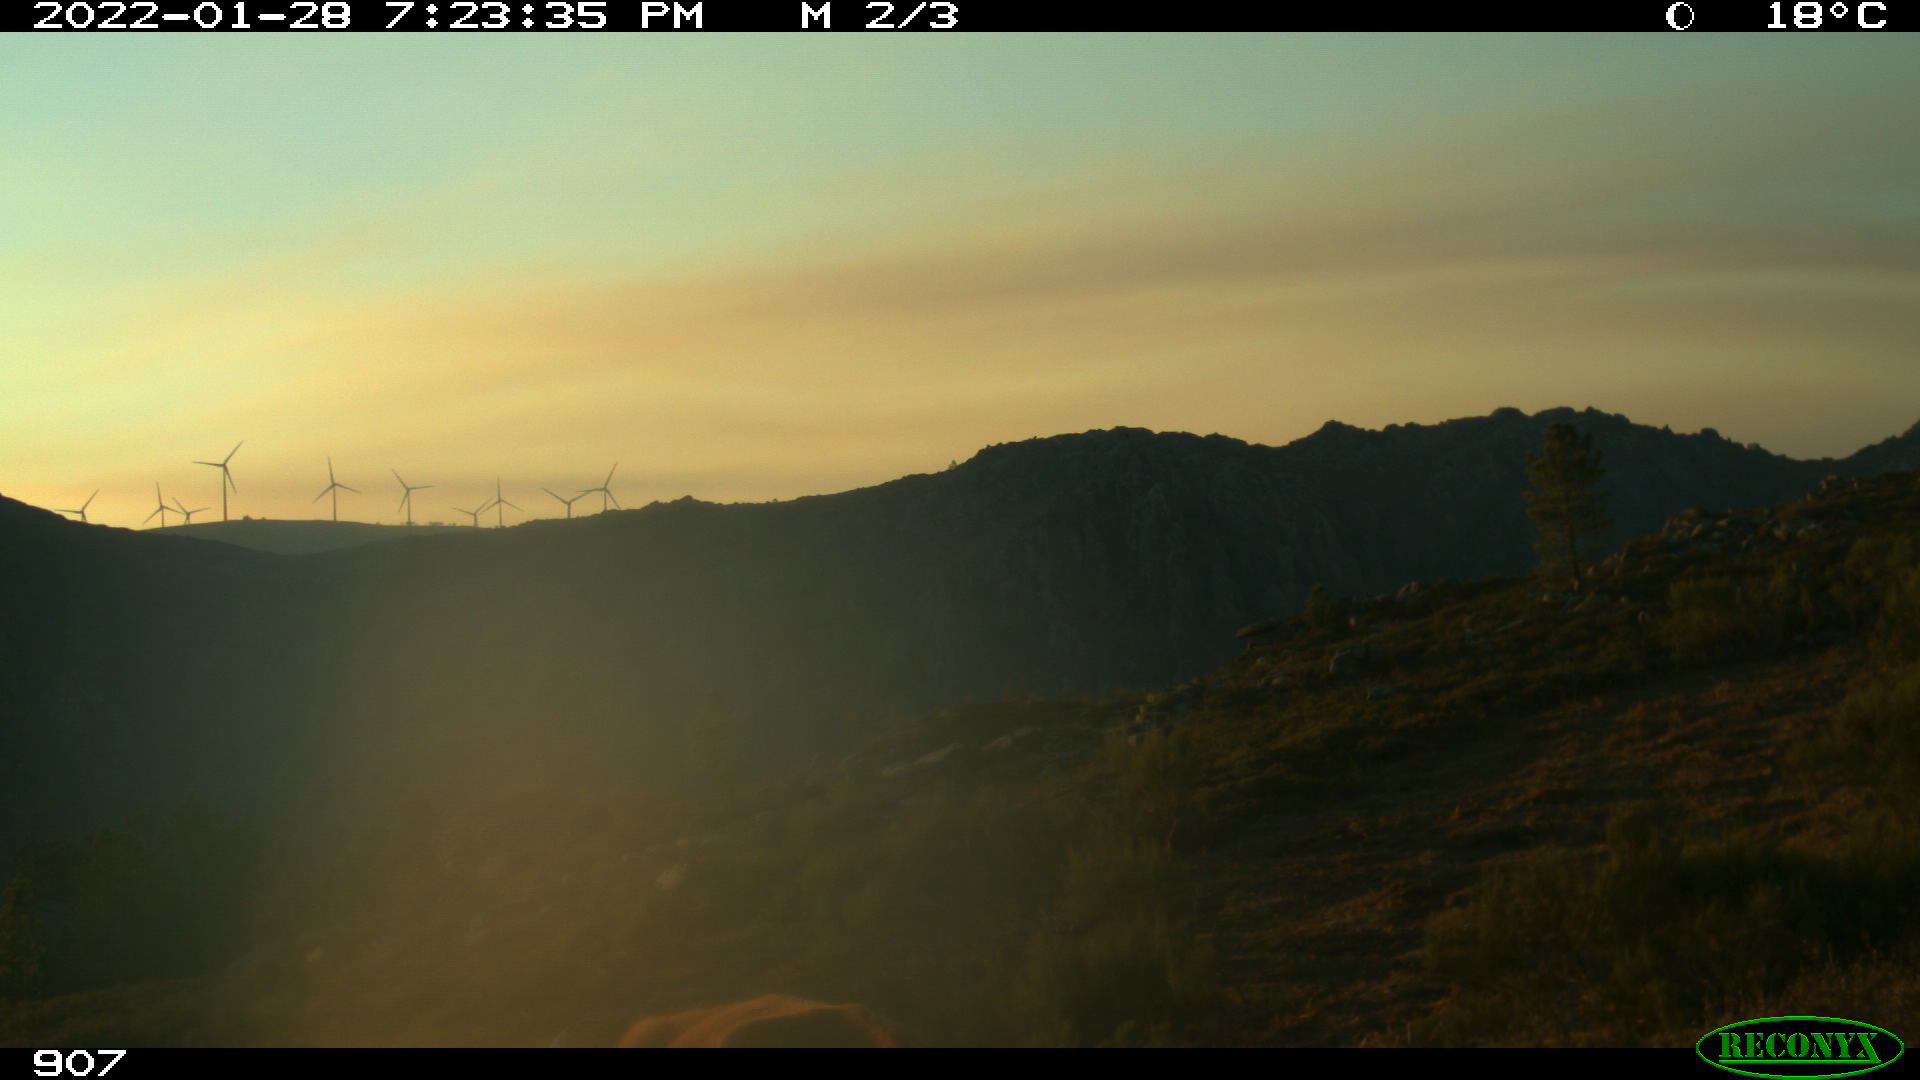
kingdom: Animalia
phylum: Chordata
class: Mammalia
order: Artiodactyla
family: Bovidae
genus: Bos
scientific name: Bos taurus
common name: Domesticated cattle
